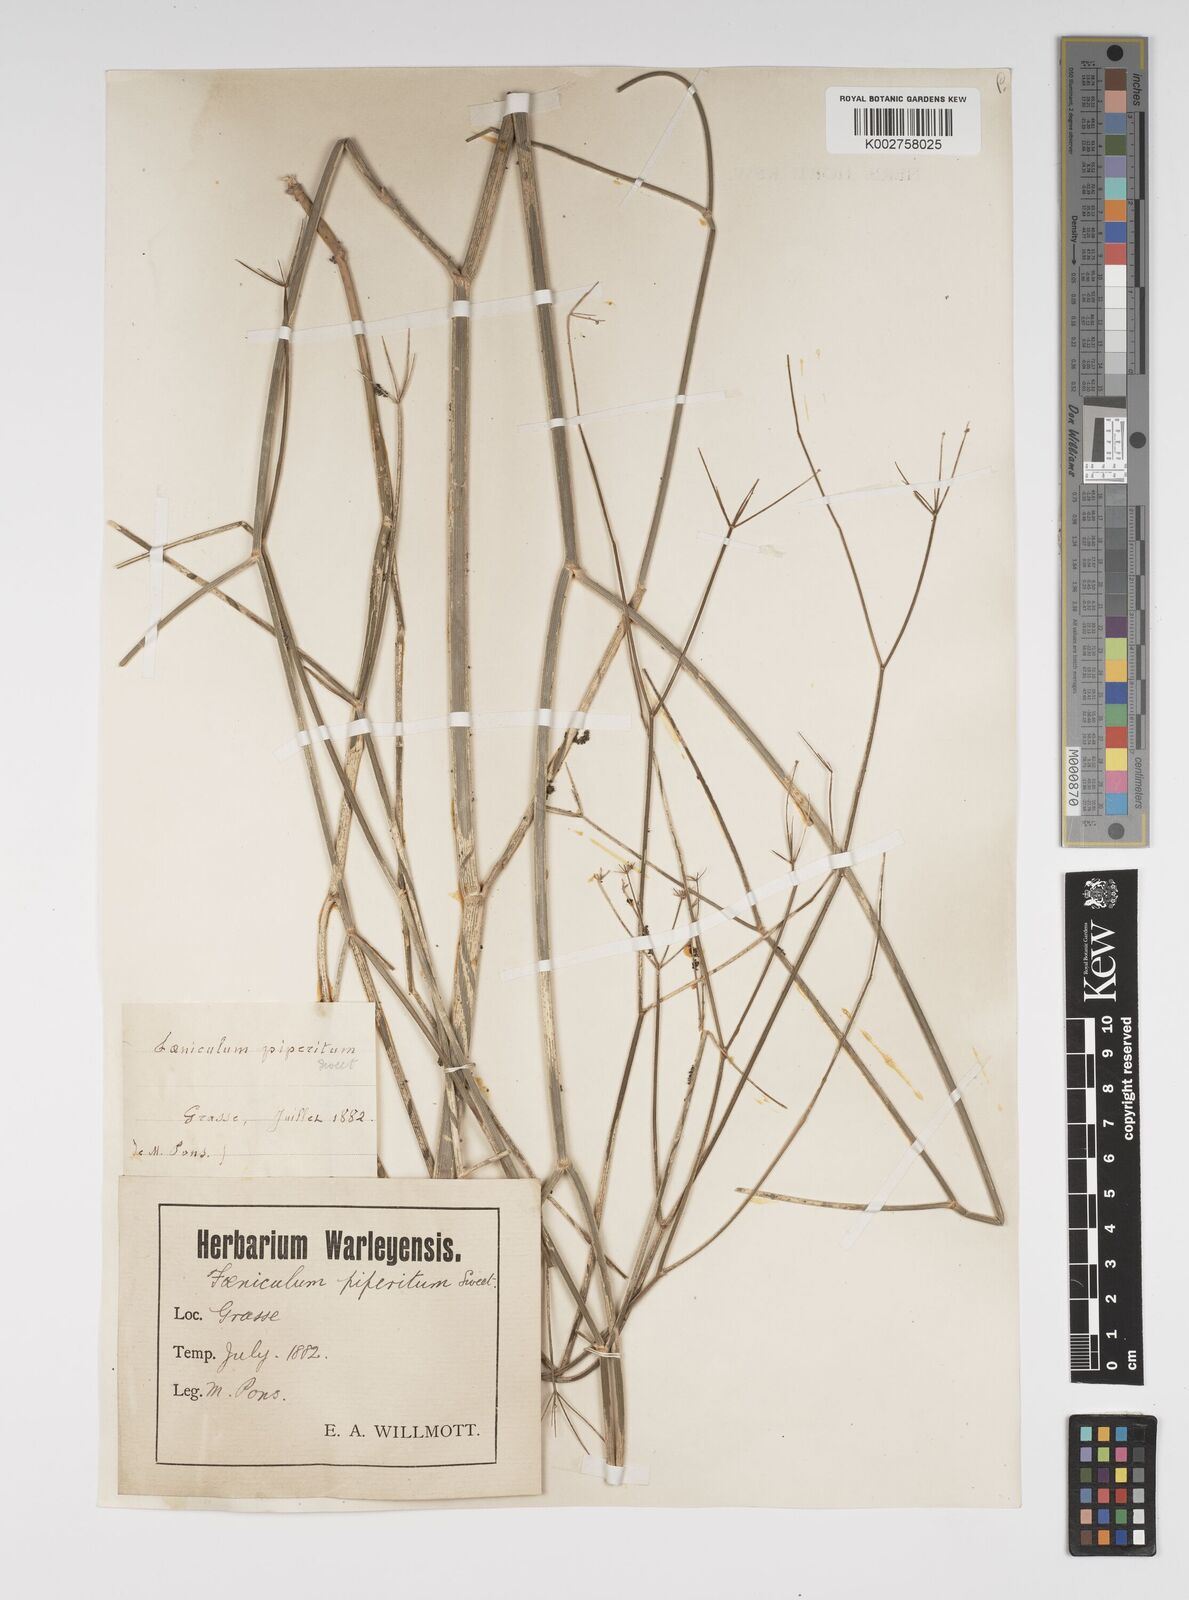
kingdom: Plantae
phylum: Tracheophyta
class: Magnoliopsida
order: Apiales
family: Apiaceae
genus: Foeniculum
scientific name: Foeniculum vulgare
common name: Fennel
